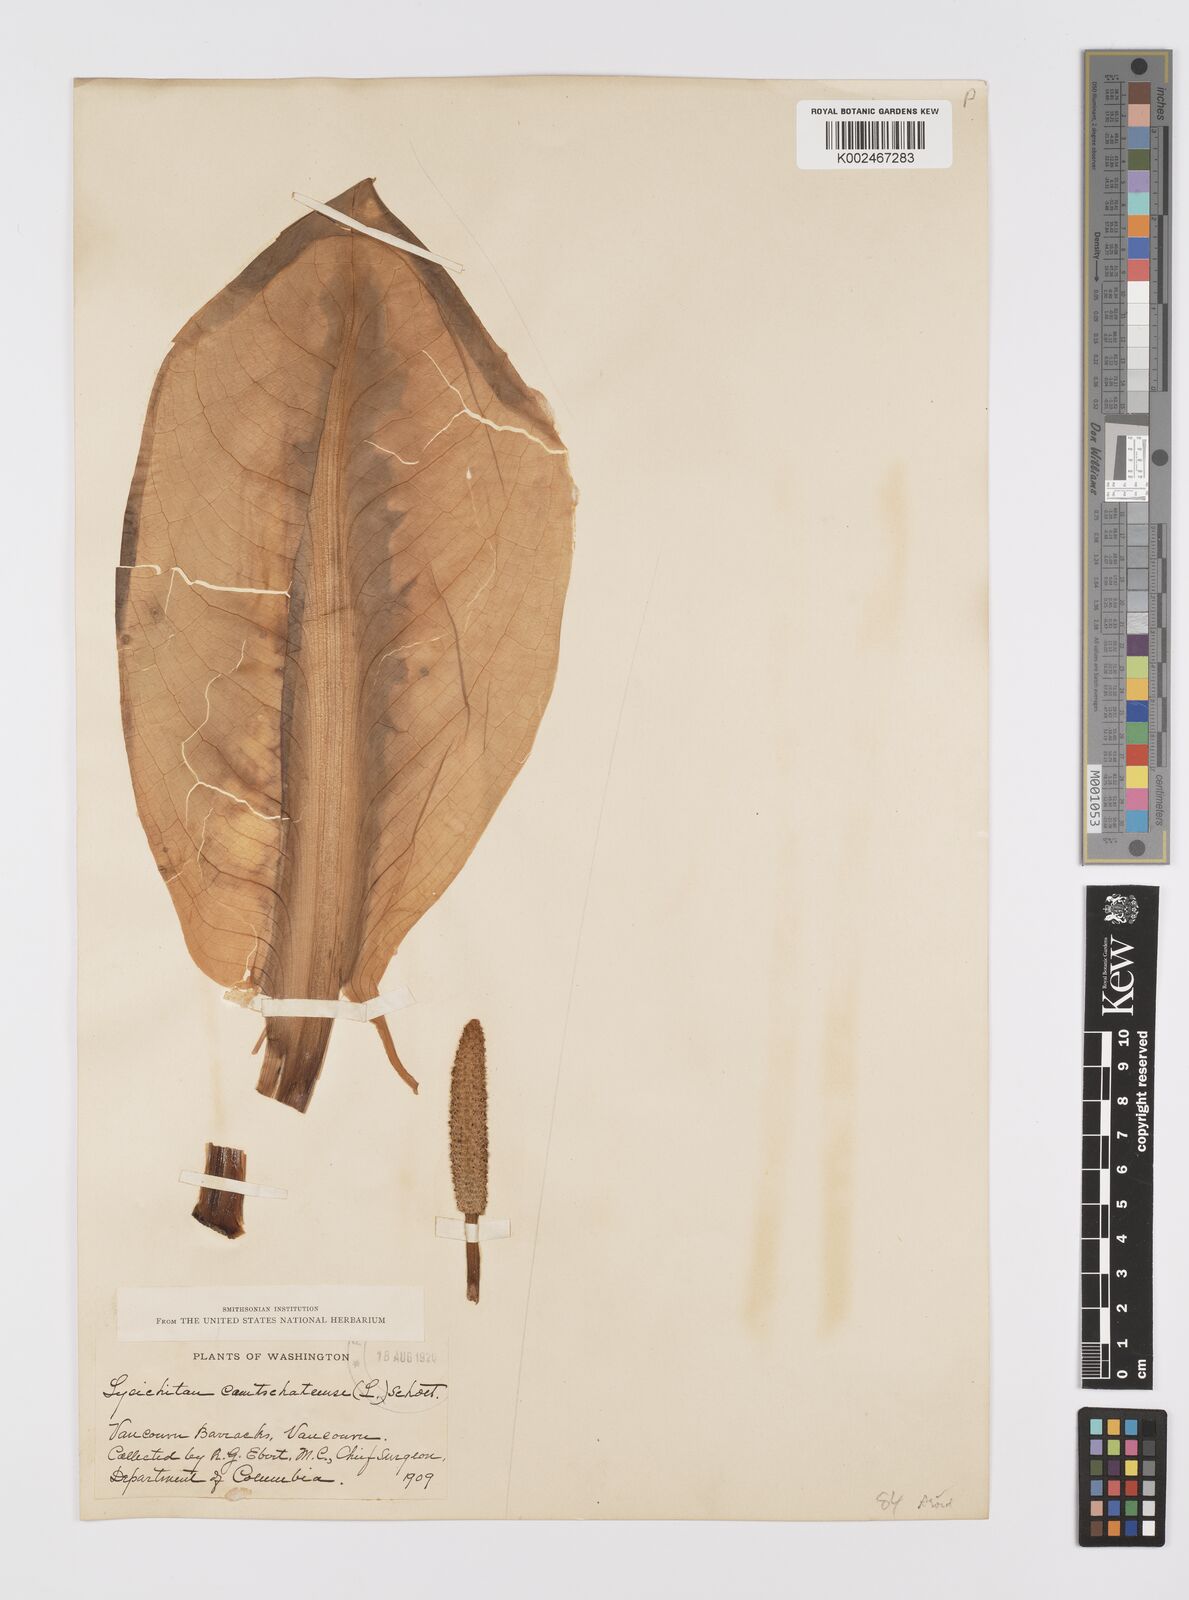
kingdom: Plantae
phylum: Tracheophyta
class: Liliopsida
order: Alismatales
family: Araceae
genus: Lysichiton
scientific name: Lysichiton americanus
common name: American skunk cabbage
